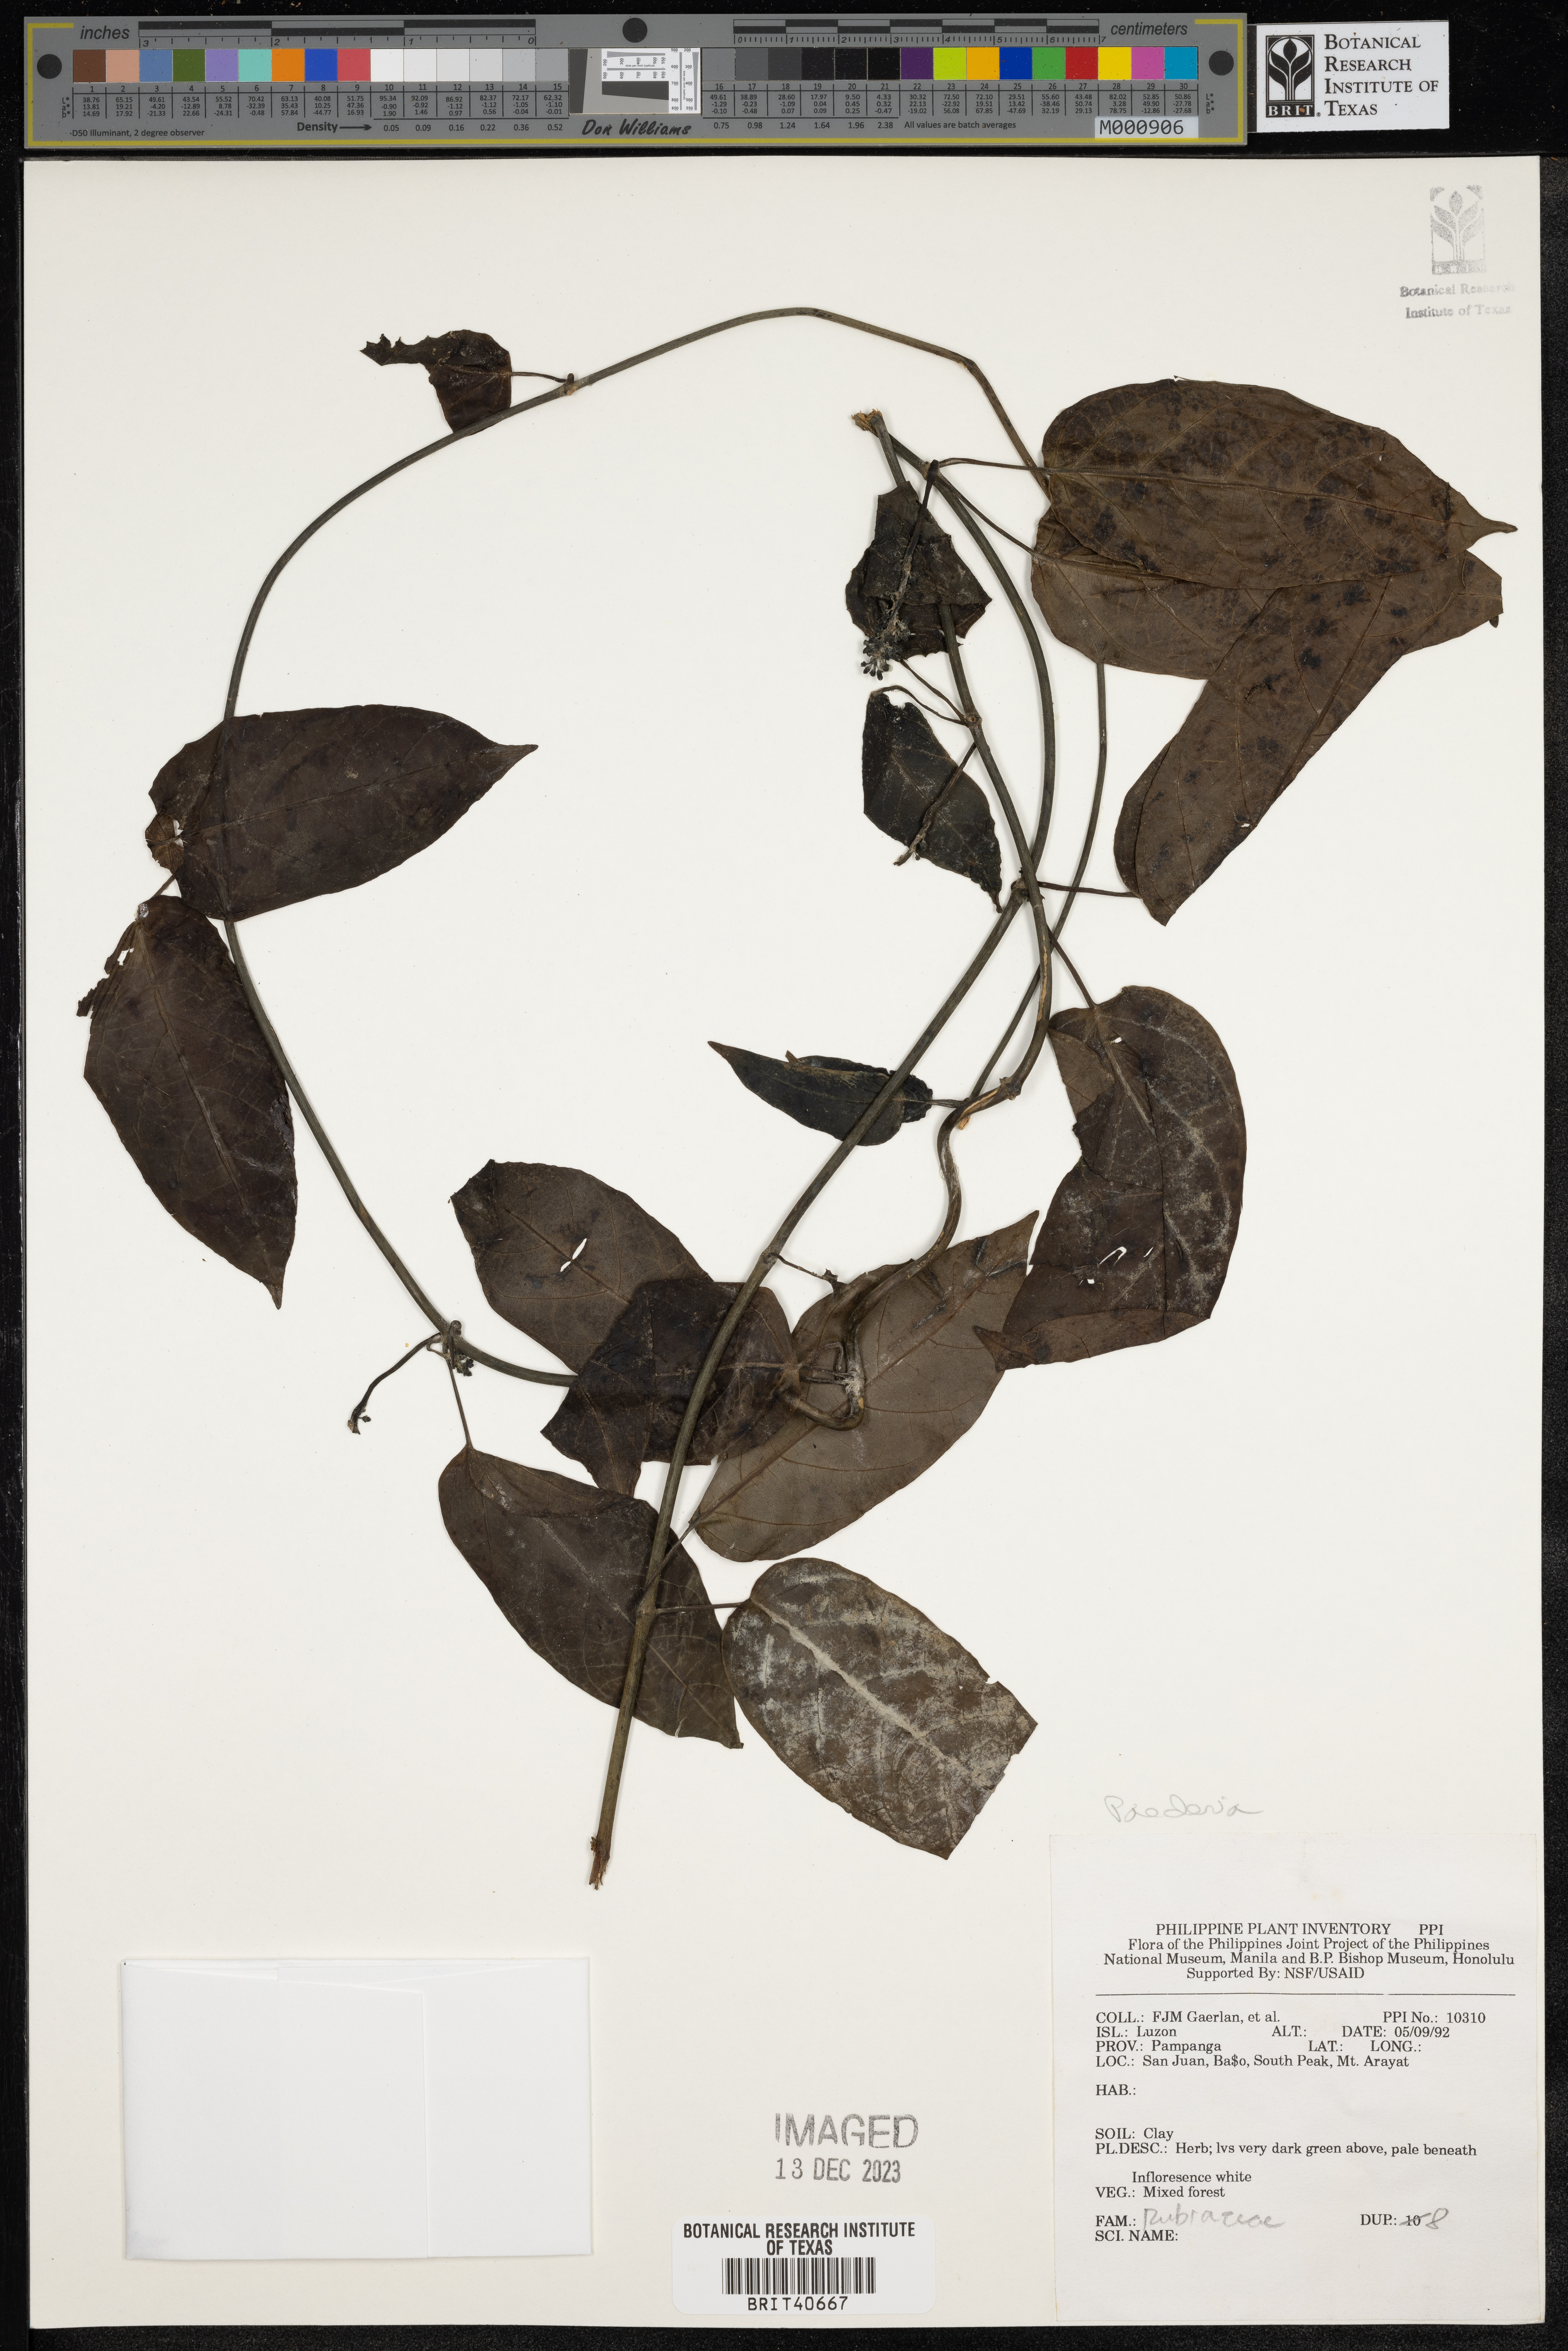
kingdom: Plantae
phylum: Tracheophyta
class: Magnoliopsida
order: Gentianales
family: Rubiaceae
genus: Paederia
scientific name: Paederia
